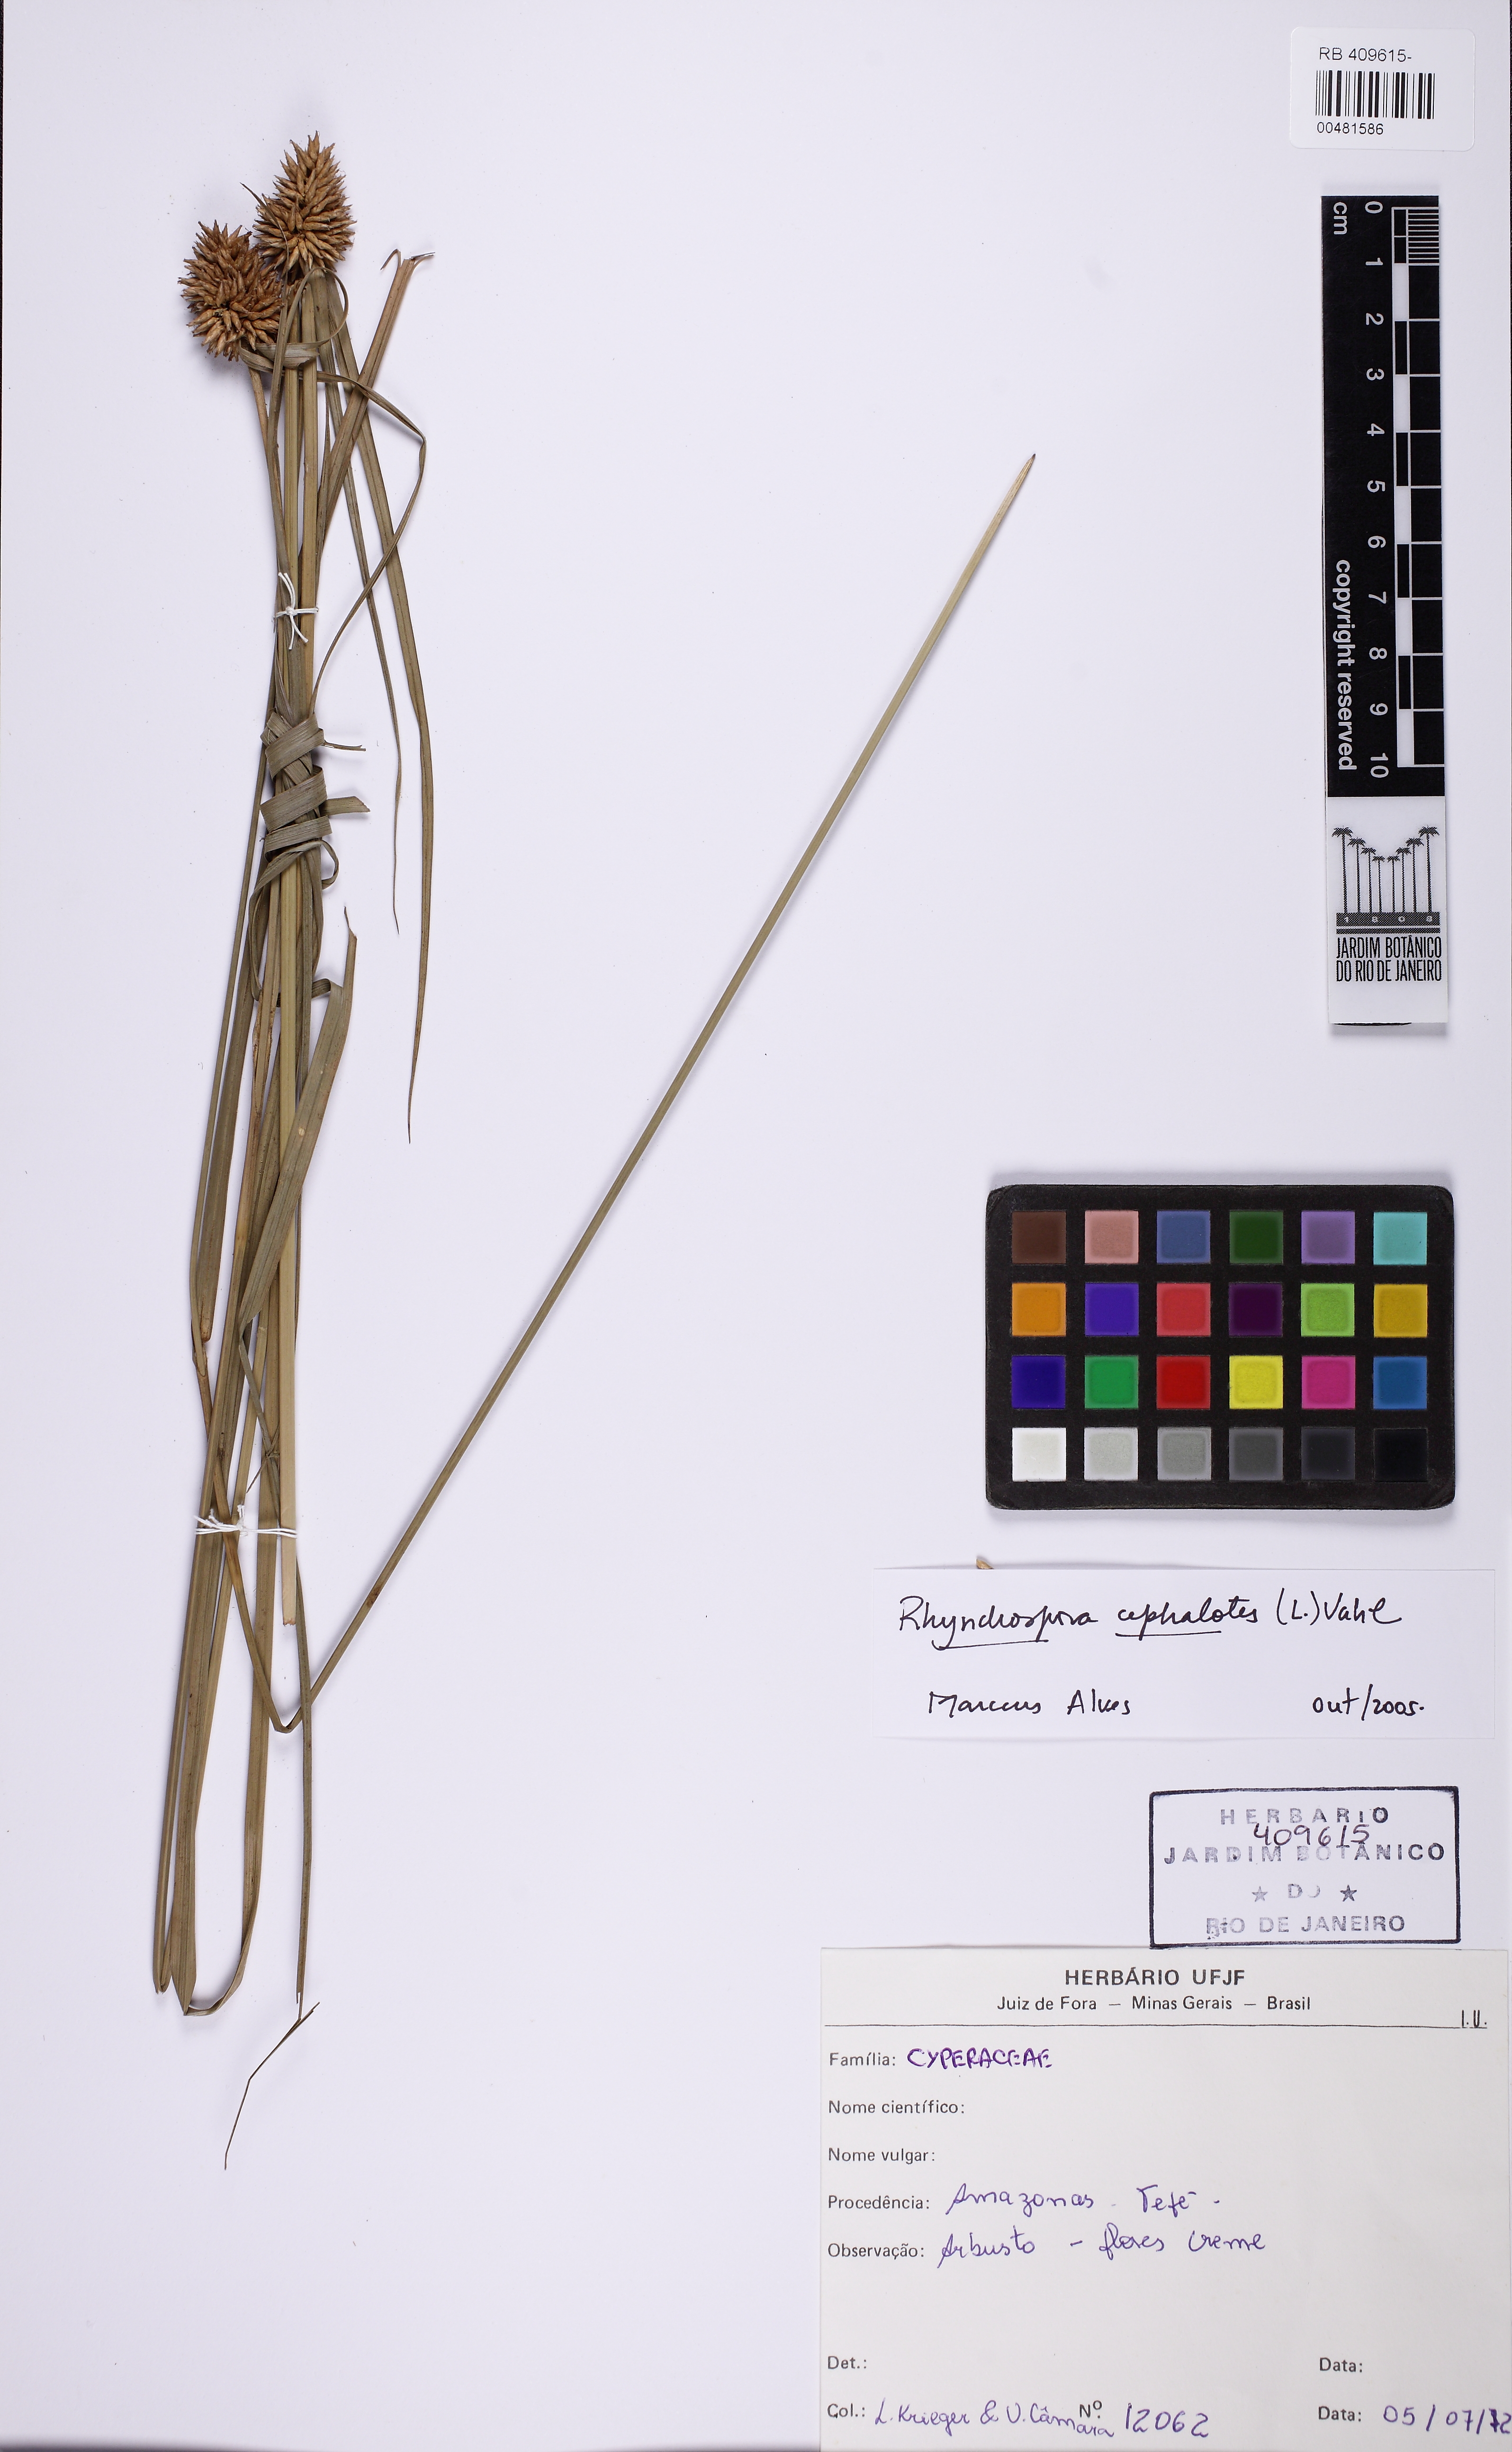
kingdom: Plantae
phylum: Tracheophyta
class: Liliopsida
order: Poales
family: Cyperaceae
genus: Rhynchospora
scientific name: Rhynchospora cephalotes
